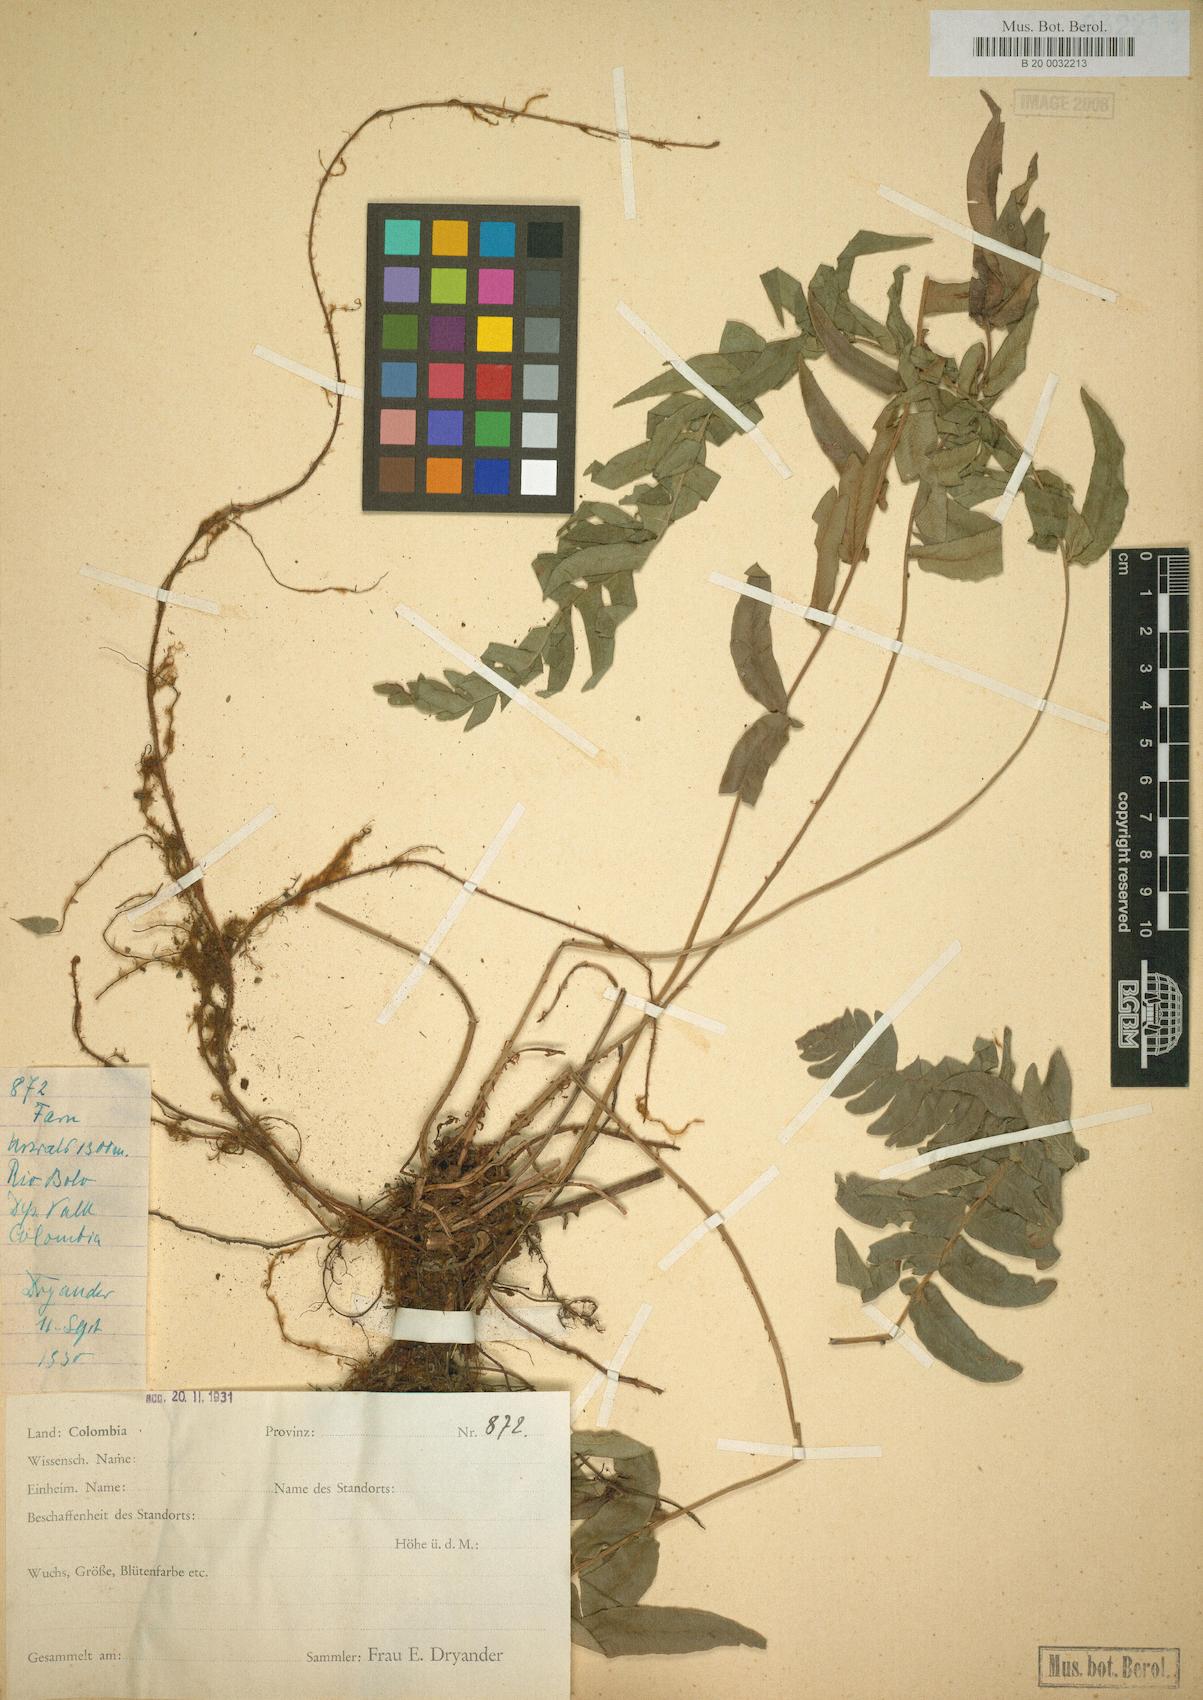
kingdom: Plantae
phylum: Tracheophyta
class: Polypodiopsida
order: Polypodiales
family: Blechnaceae
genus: Blechnum
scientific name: Blechnum occidentale
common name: Hammock fern
